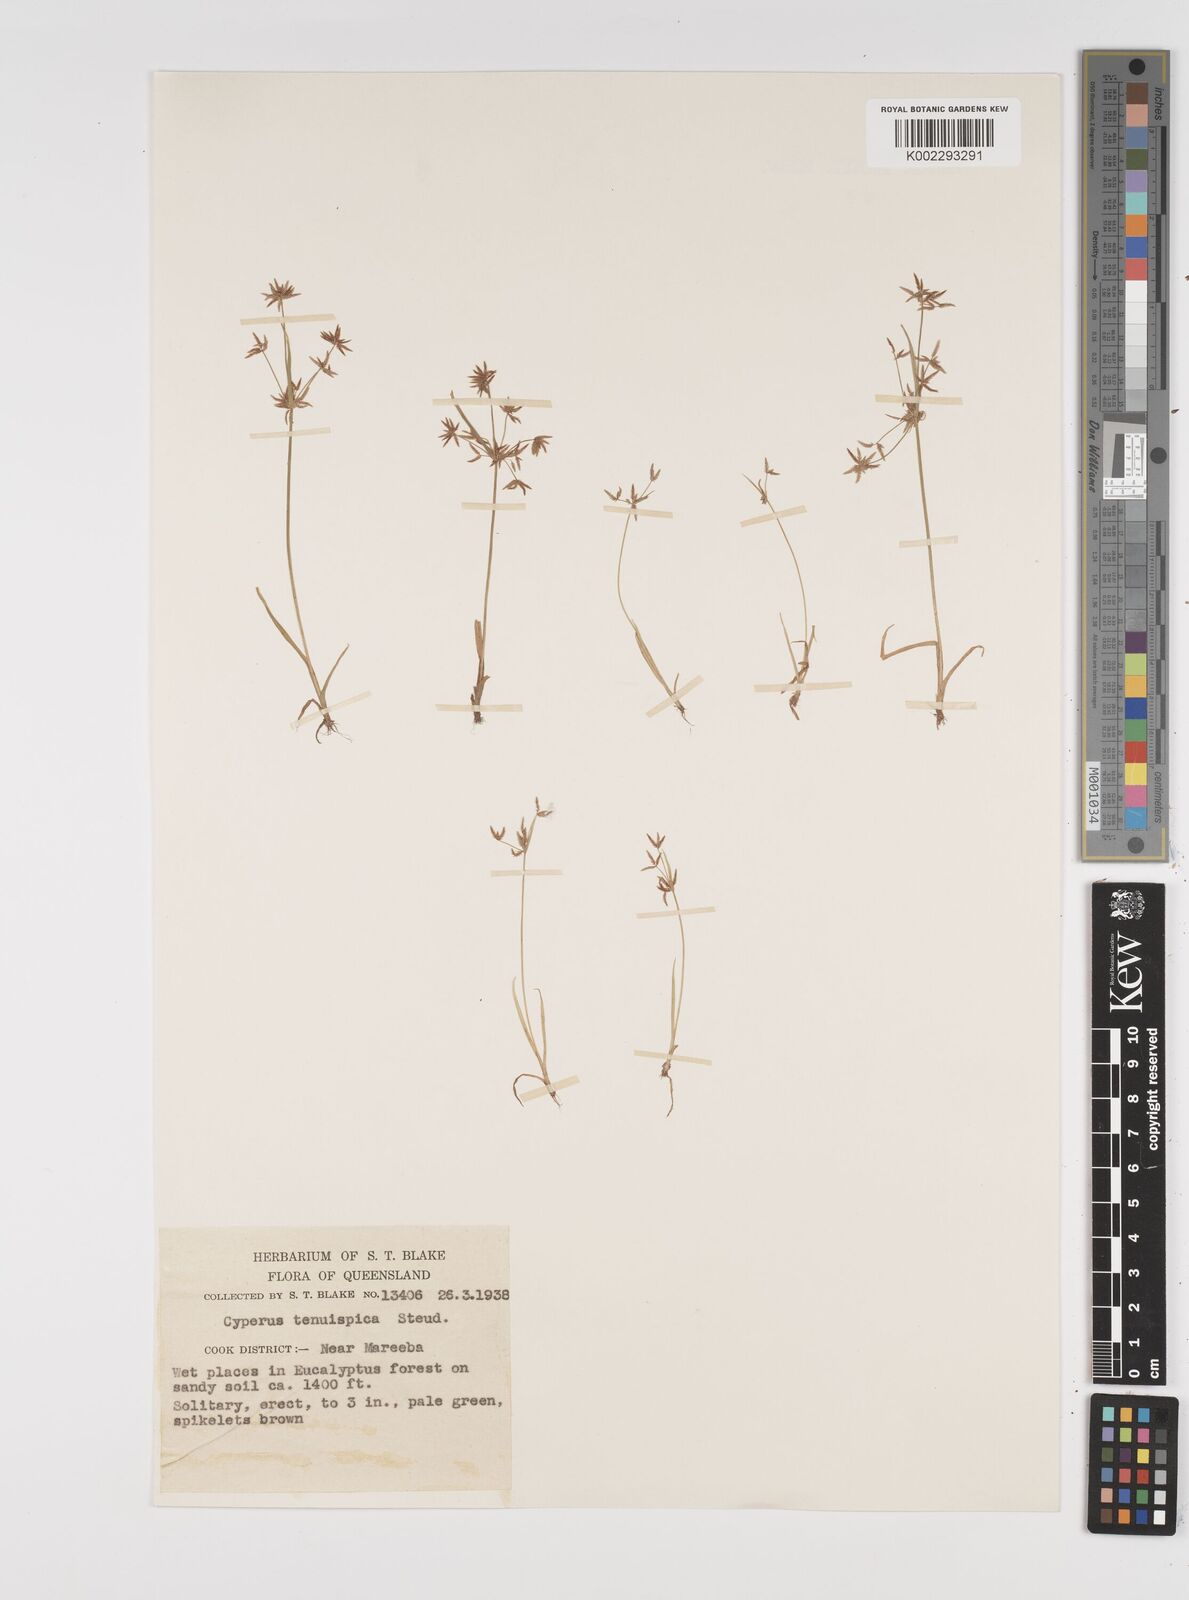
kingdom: Plantae
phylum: Tracheophyta
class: Liliopsida
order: Poales
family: Cyperaceae
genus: Cyperus
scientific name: Cyperus tenuispica
